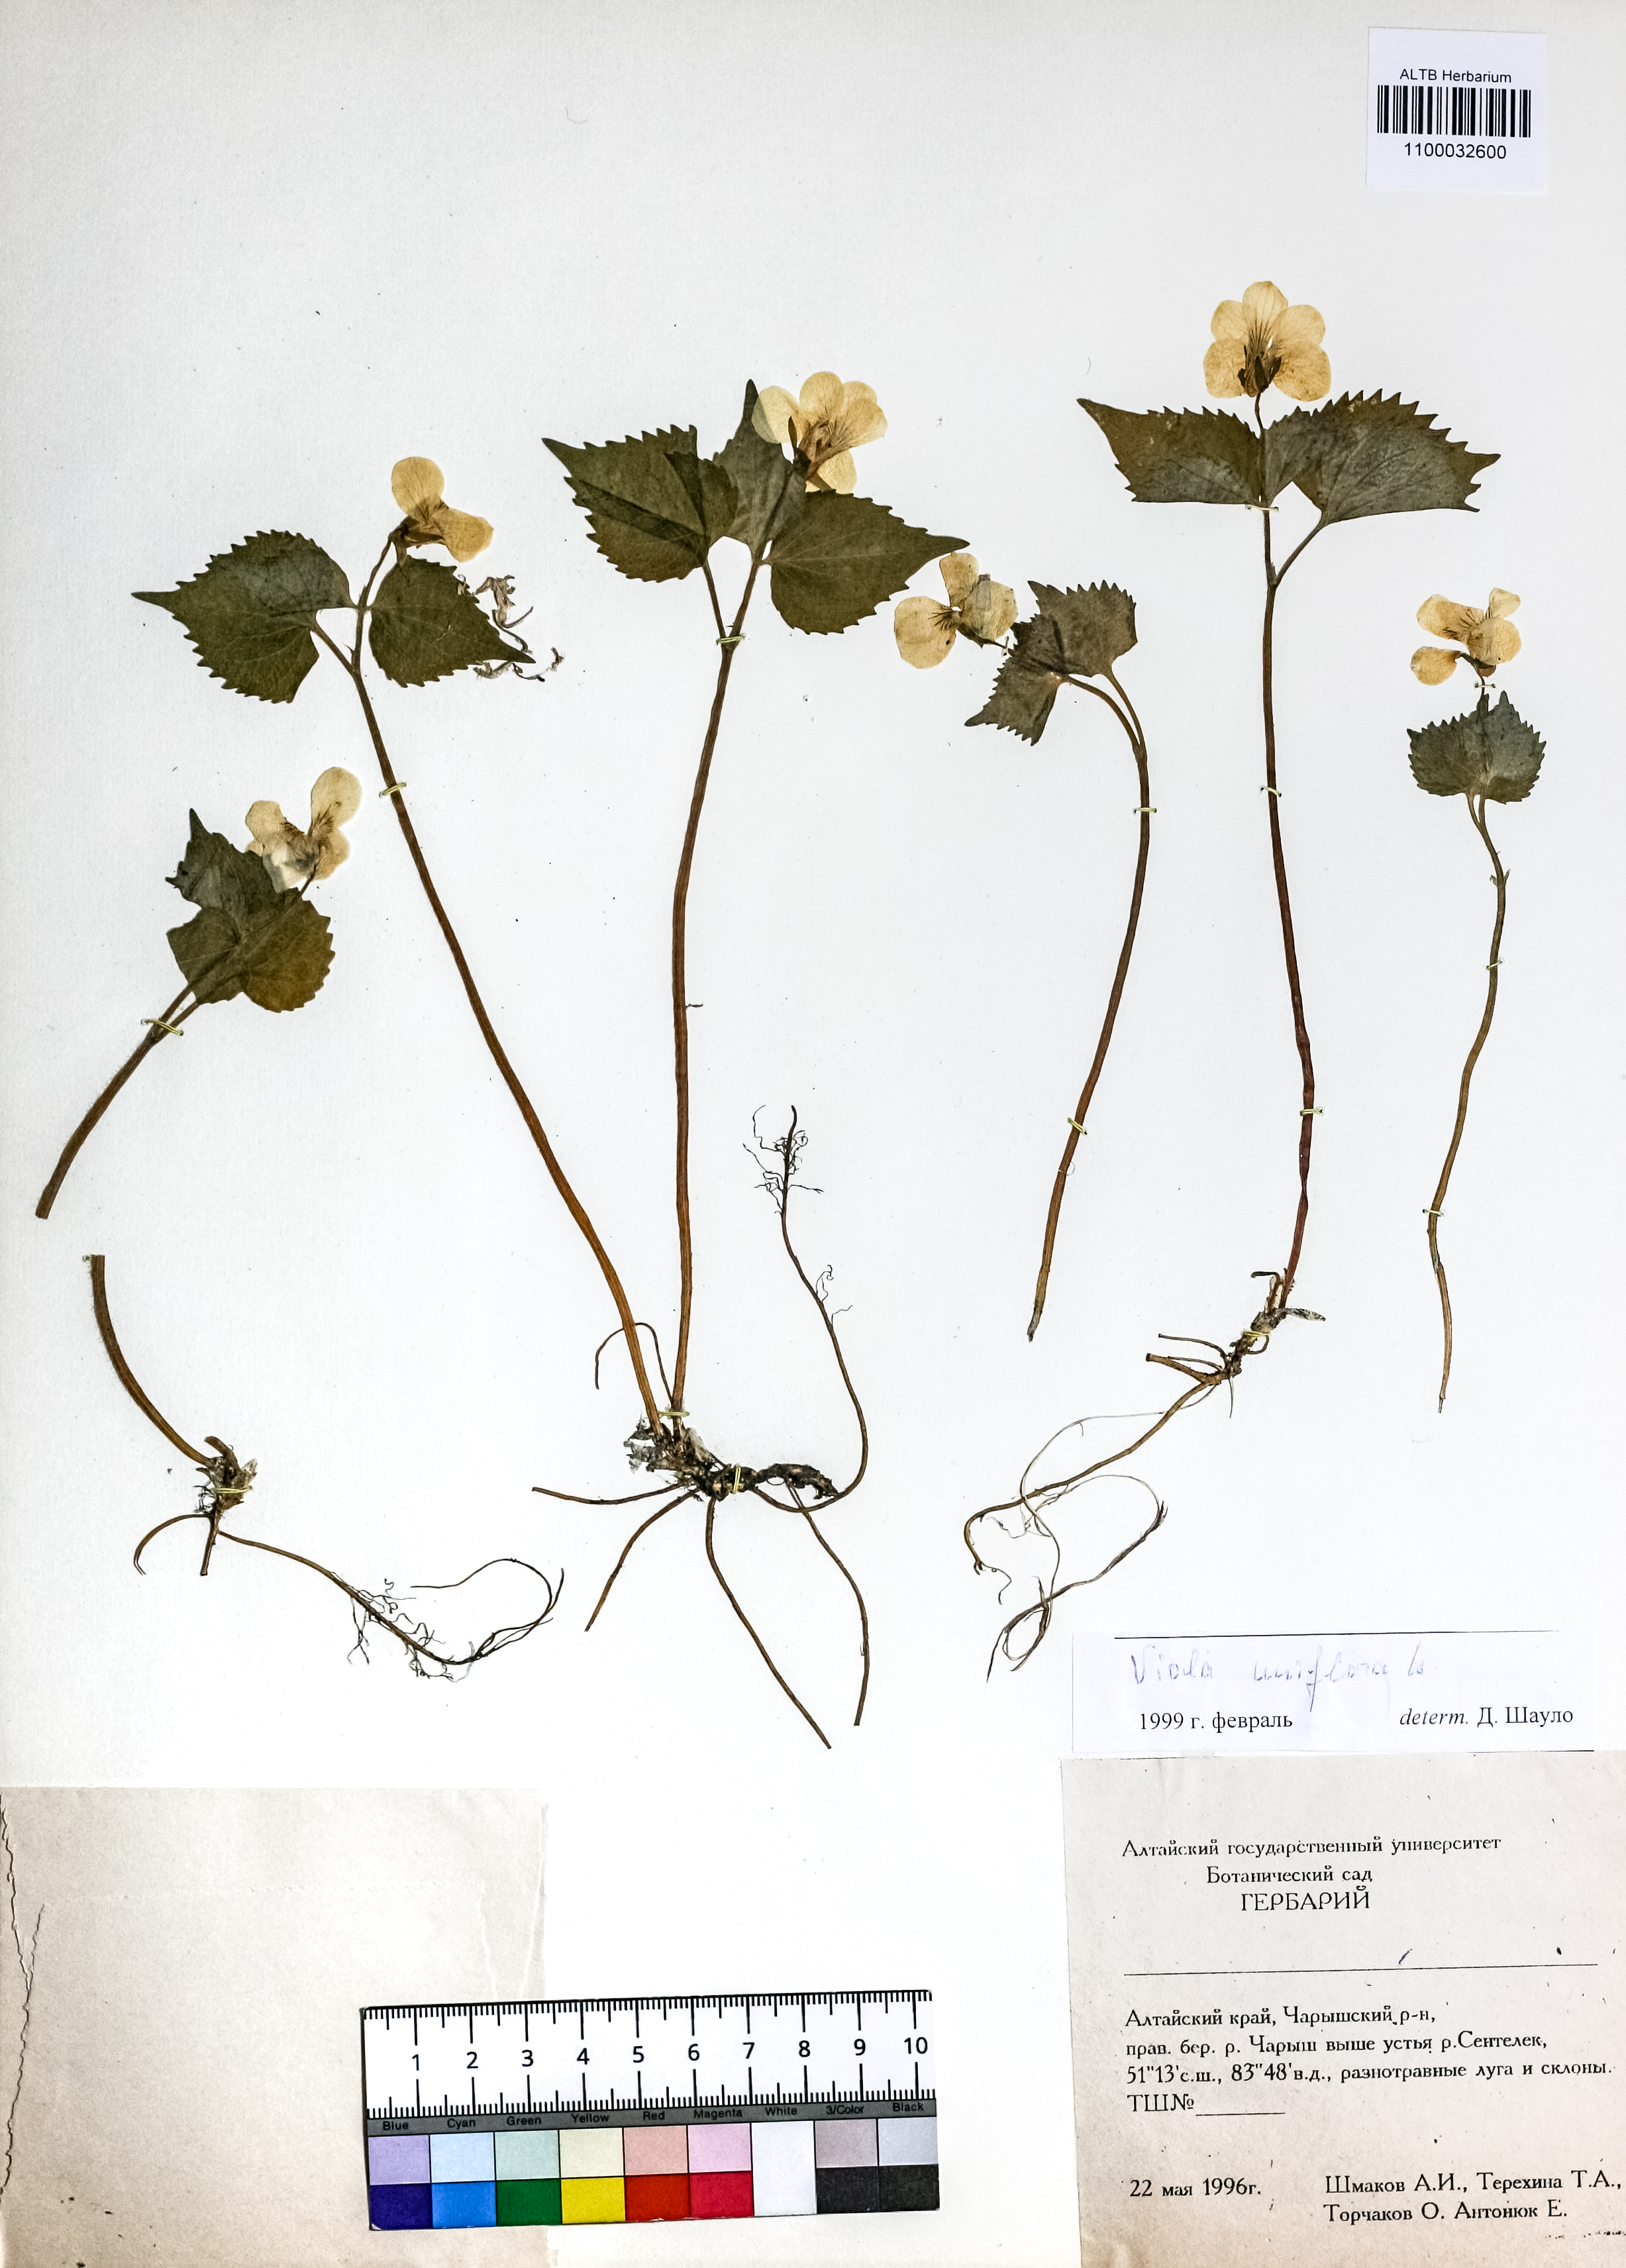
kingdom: Plantae
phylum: Tracheophyta
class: Magnoliopsida
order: Malpighiales
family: Violaceae
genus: Viola
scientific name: Viola uniflora
